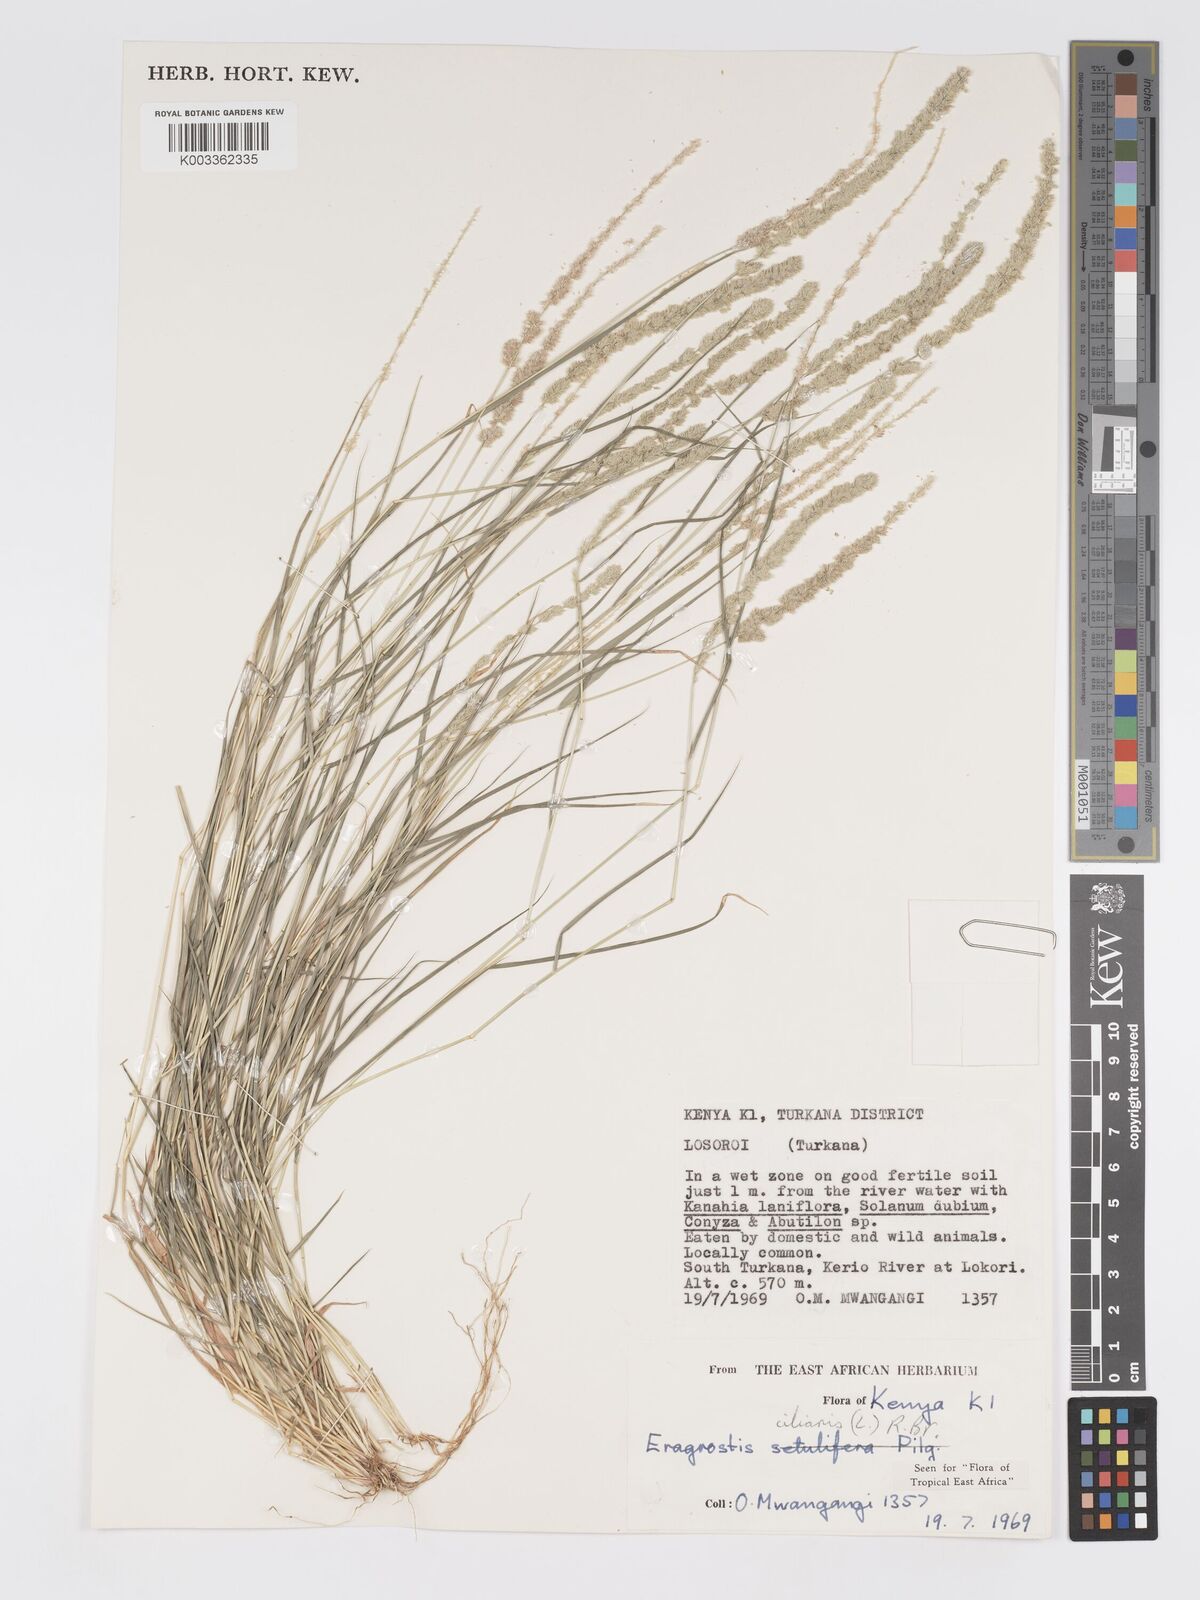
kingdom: Plantae
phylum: Tracheophyta
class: Liliopsida
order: Poales
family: Poaceae
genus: Eragrostis
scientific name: Eragrostis ciliaris
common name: Gophertail lovegrass
